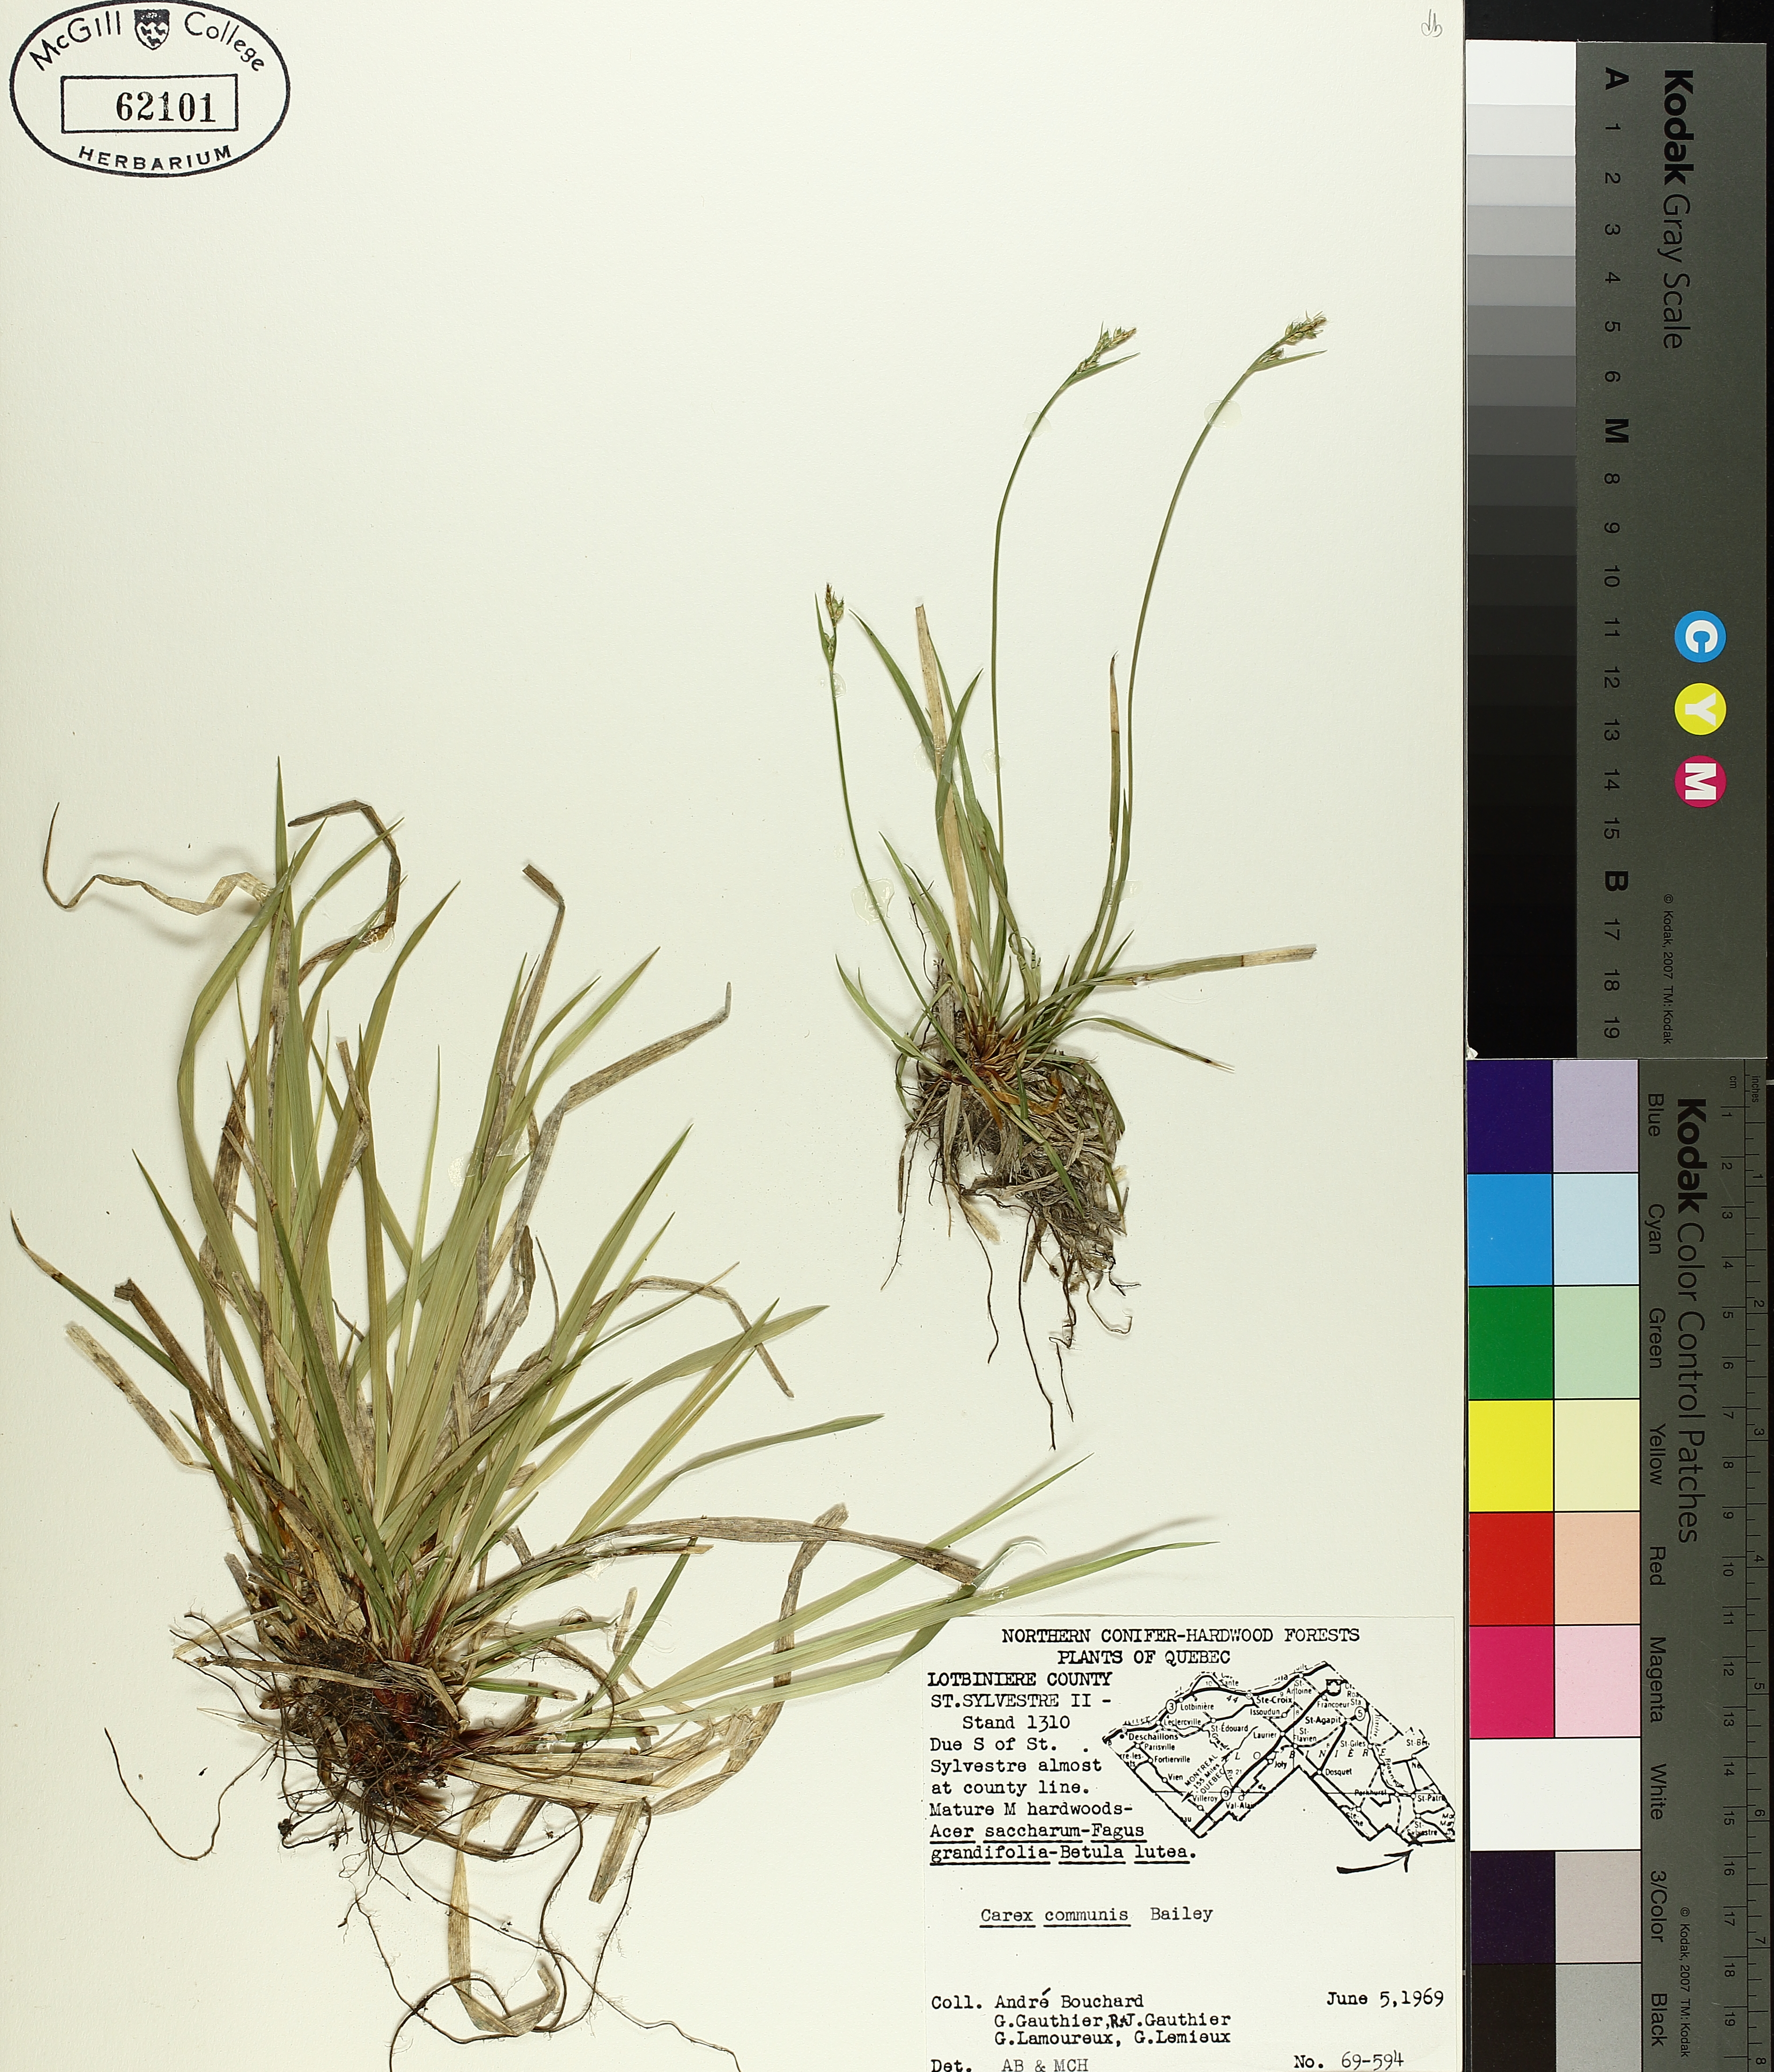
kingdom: Plantae
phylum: Tracheophyta
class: Liliopsida
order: Poales
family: Cyperaceae
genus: Carex
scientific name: Carex communis
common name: Colonial oak sedge
